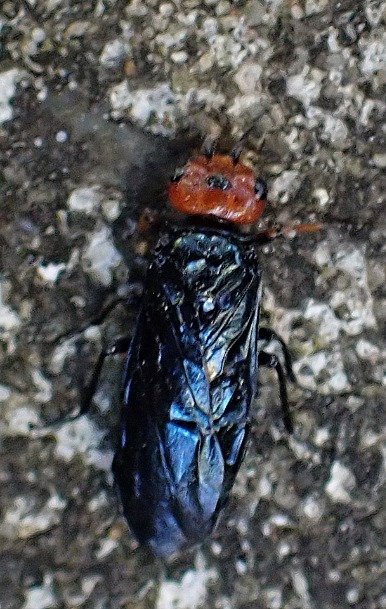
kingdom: Animalia
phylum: Arthropoda
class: Insecta
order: Hymenoptera
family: Pamphiliidae
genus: Acantholyda
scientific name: Acantholyda erythrocephala
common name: Rødhovedet fyrrespindehveps
